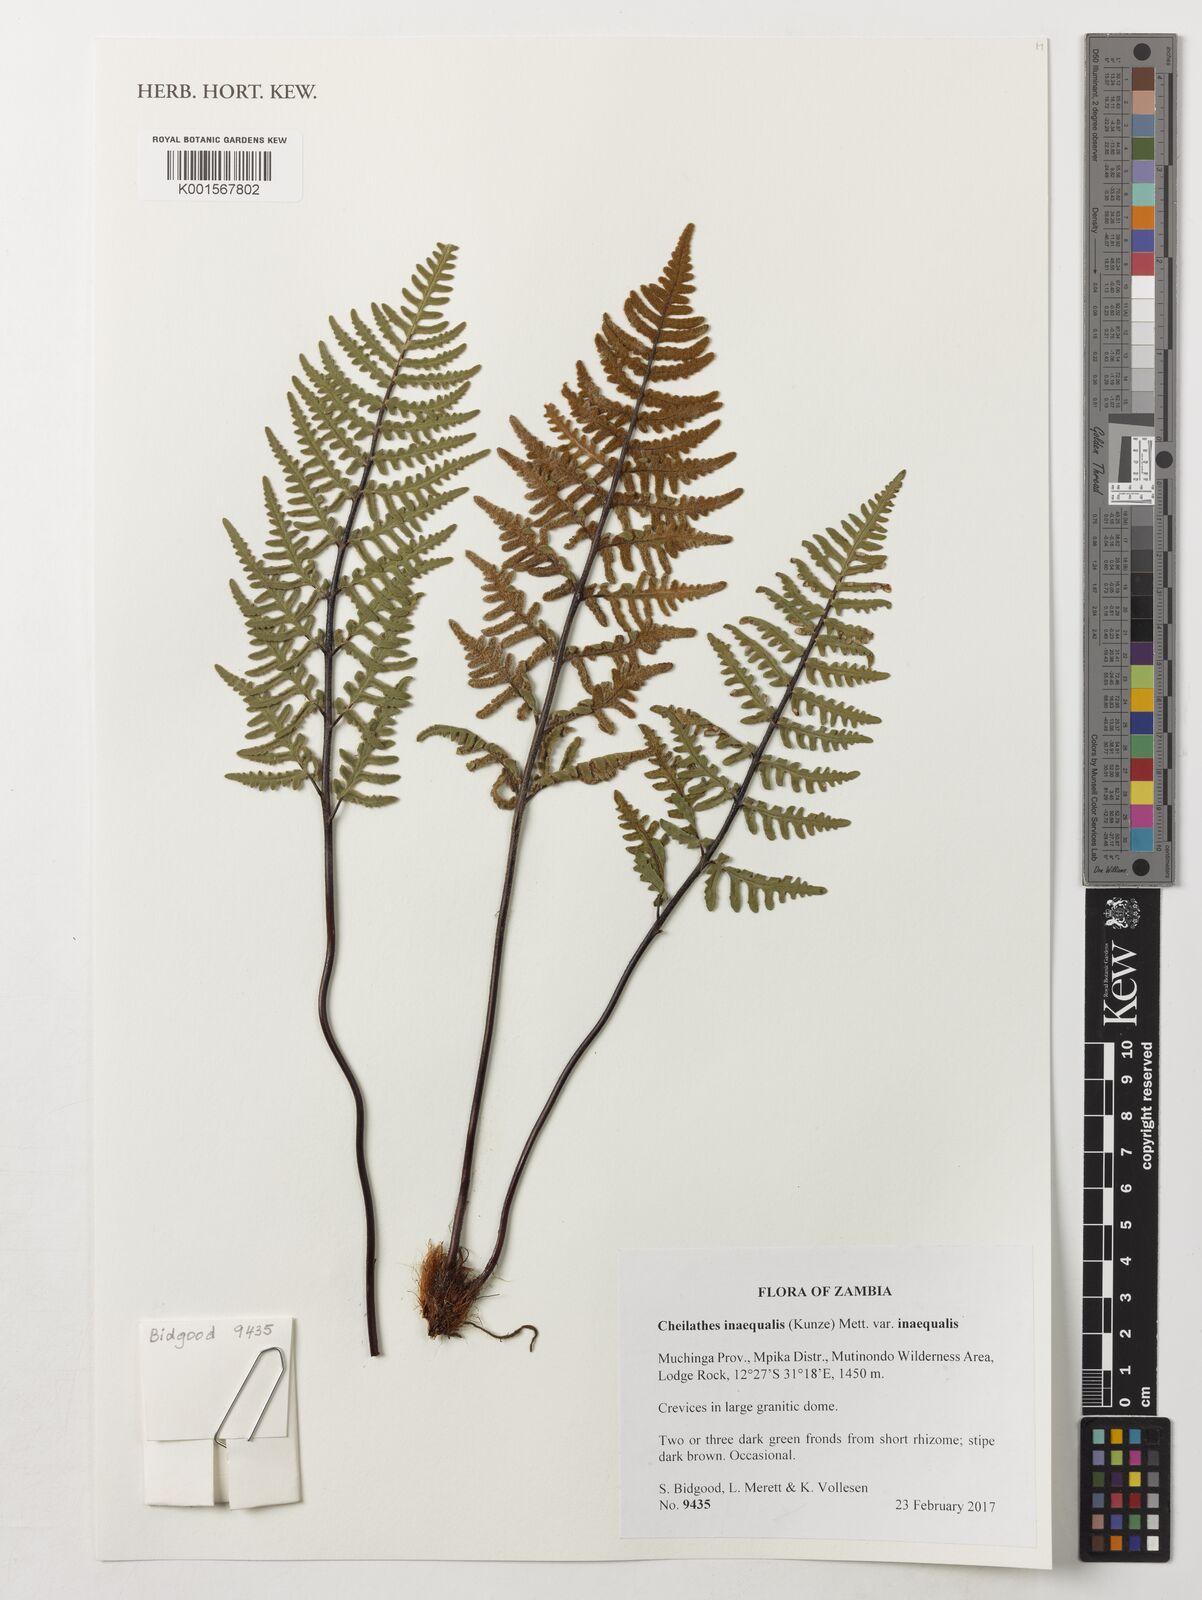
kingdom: Plantae
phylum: Tracheophyta
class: Polypodiopsida
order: Polypodiales
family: Pteridaceae
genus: Cheilanthes
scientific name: Cheilanthes inaequalis
